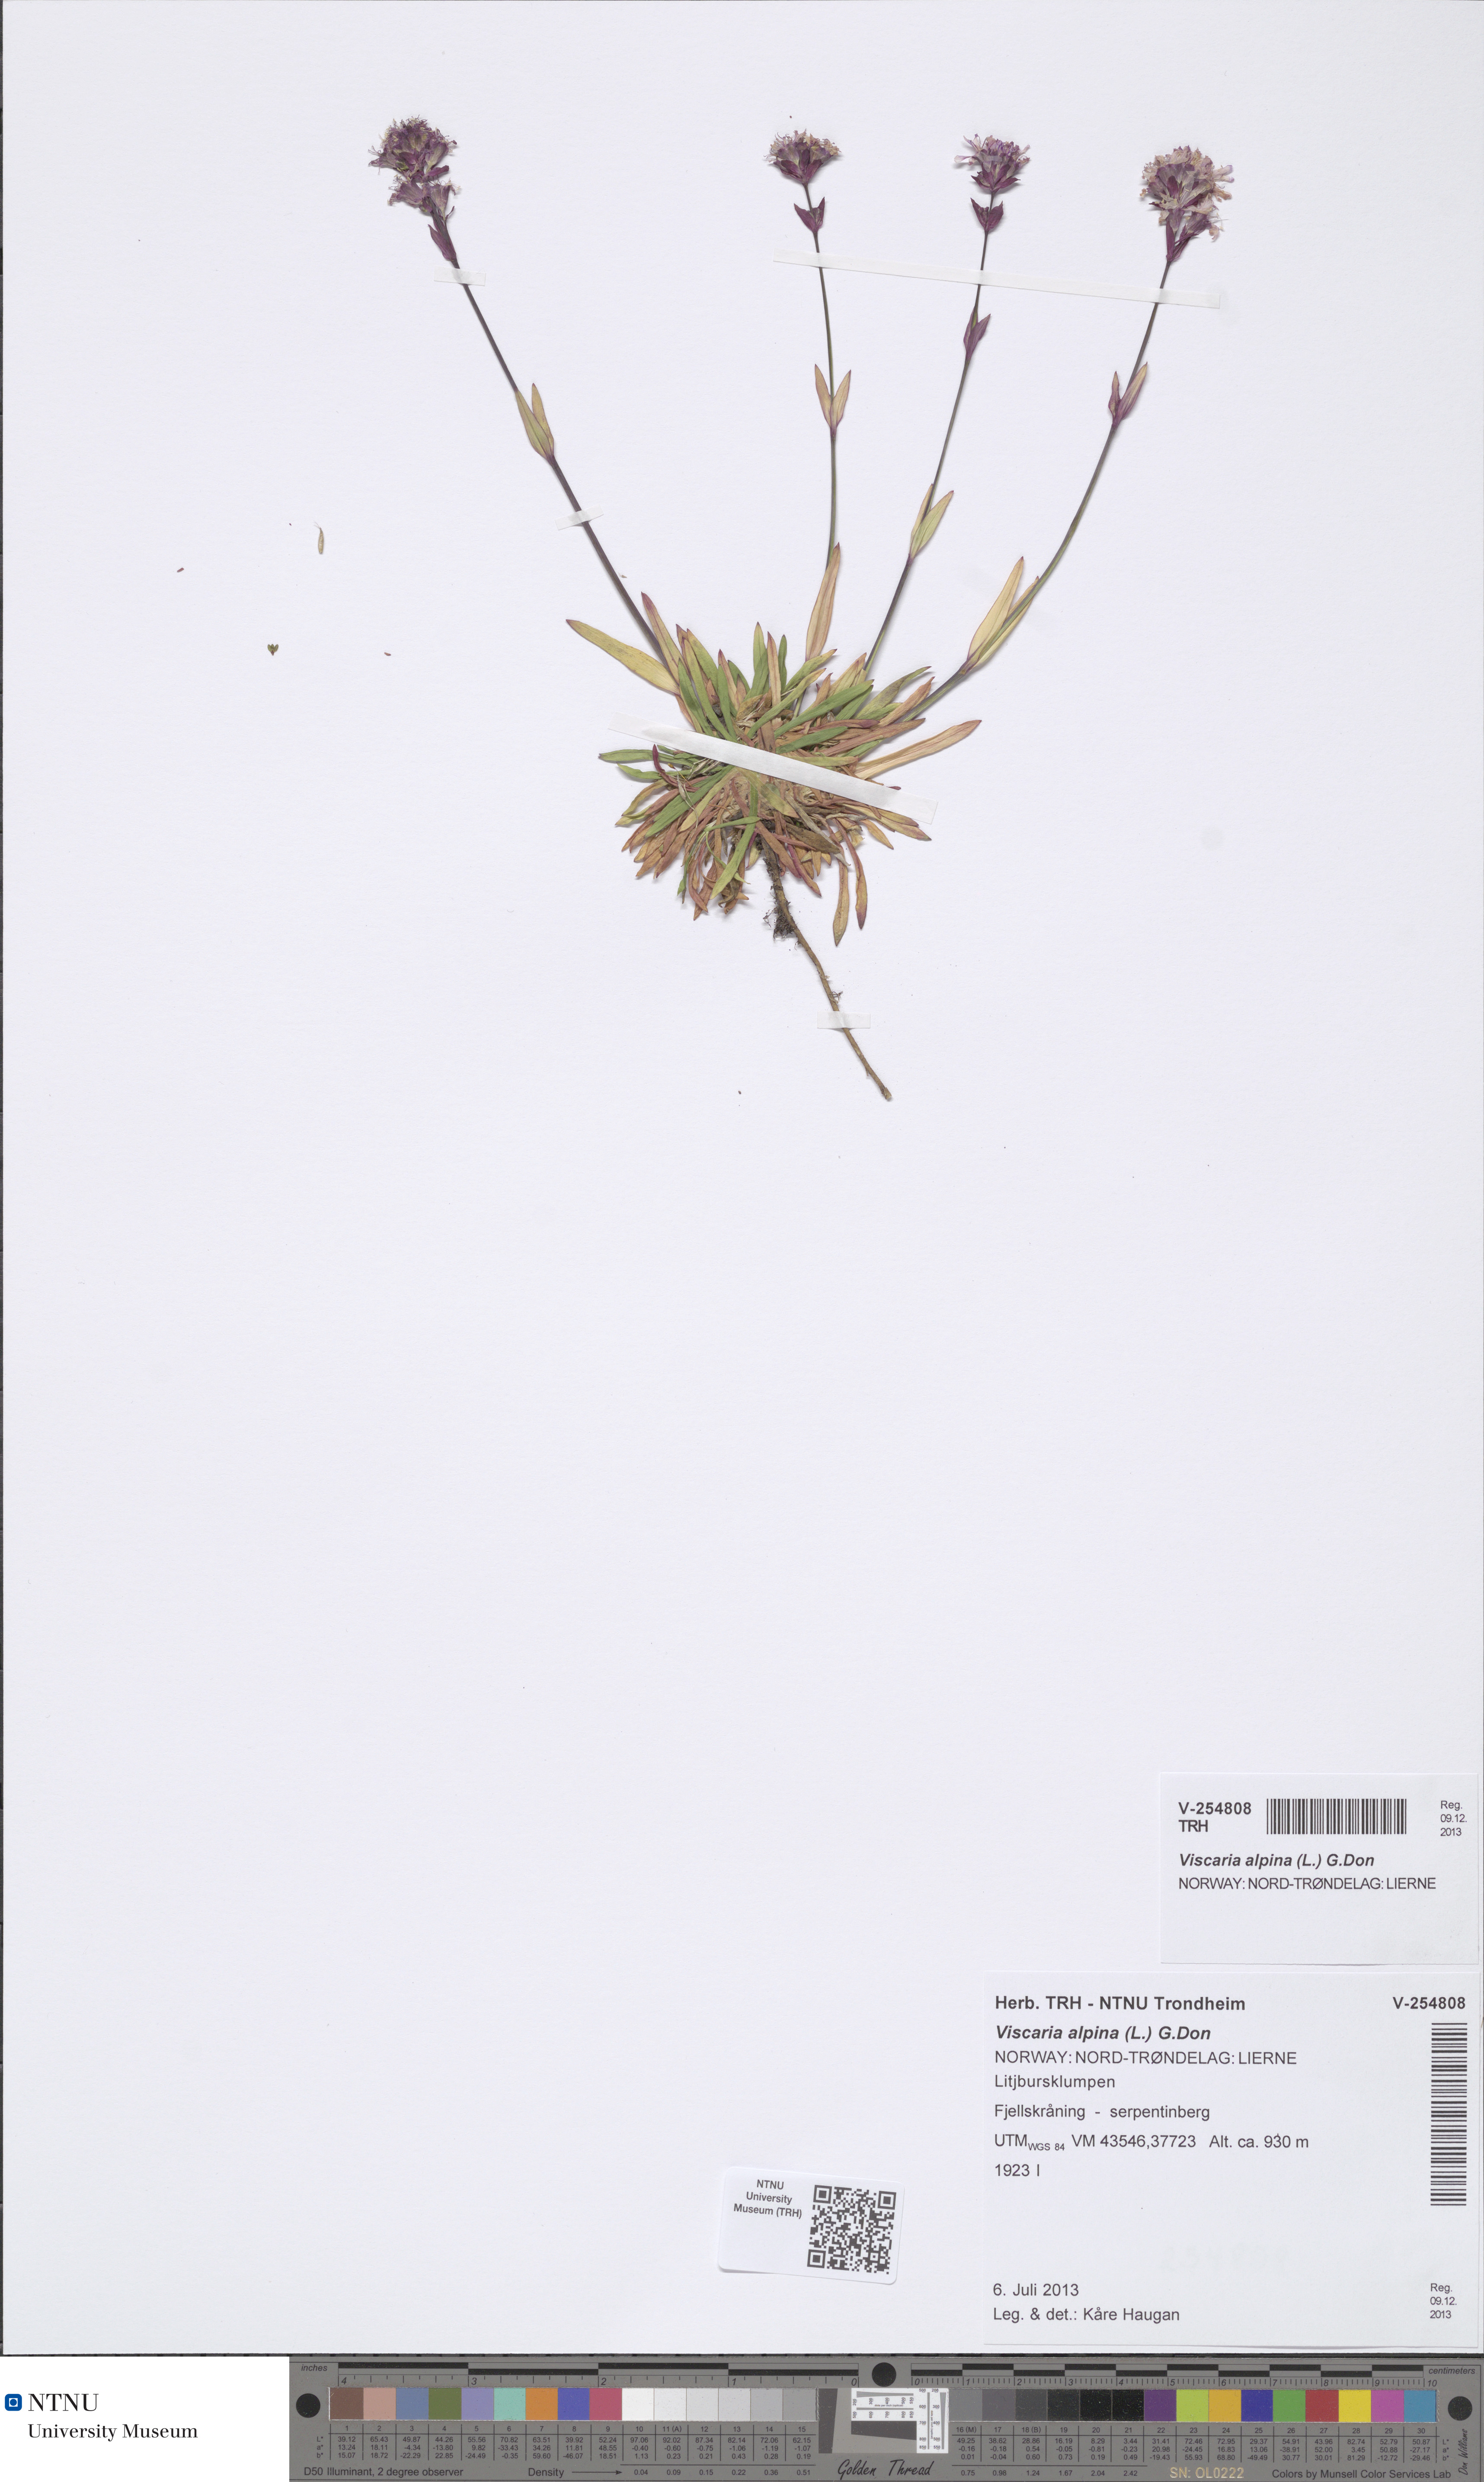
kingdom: Plantae
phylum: Tracheophyta
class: Magnoliopsida
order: Caryophyllales
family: Caryophyllaceae
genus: Viscaria
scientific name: Viscaria alpina
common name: Alpine campion
